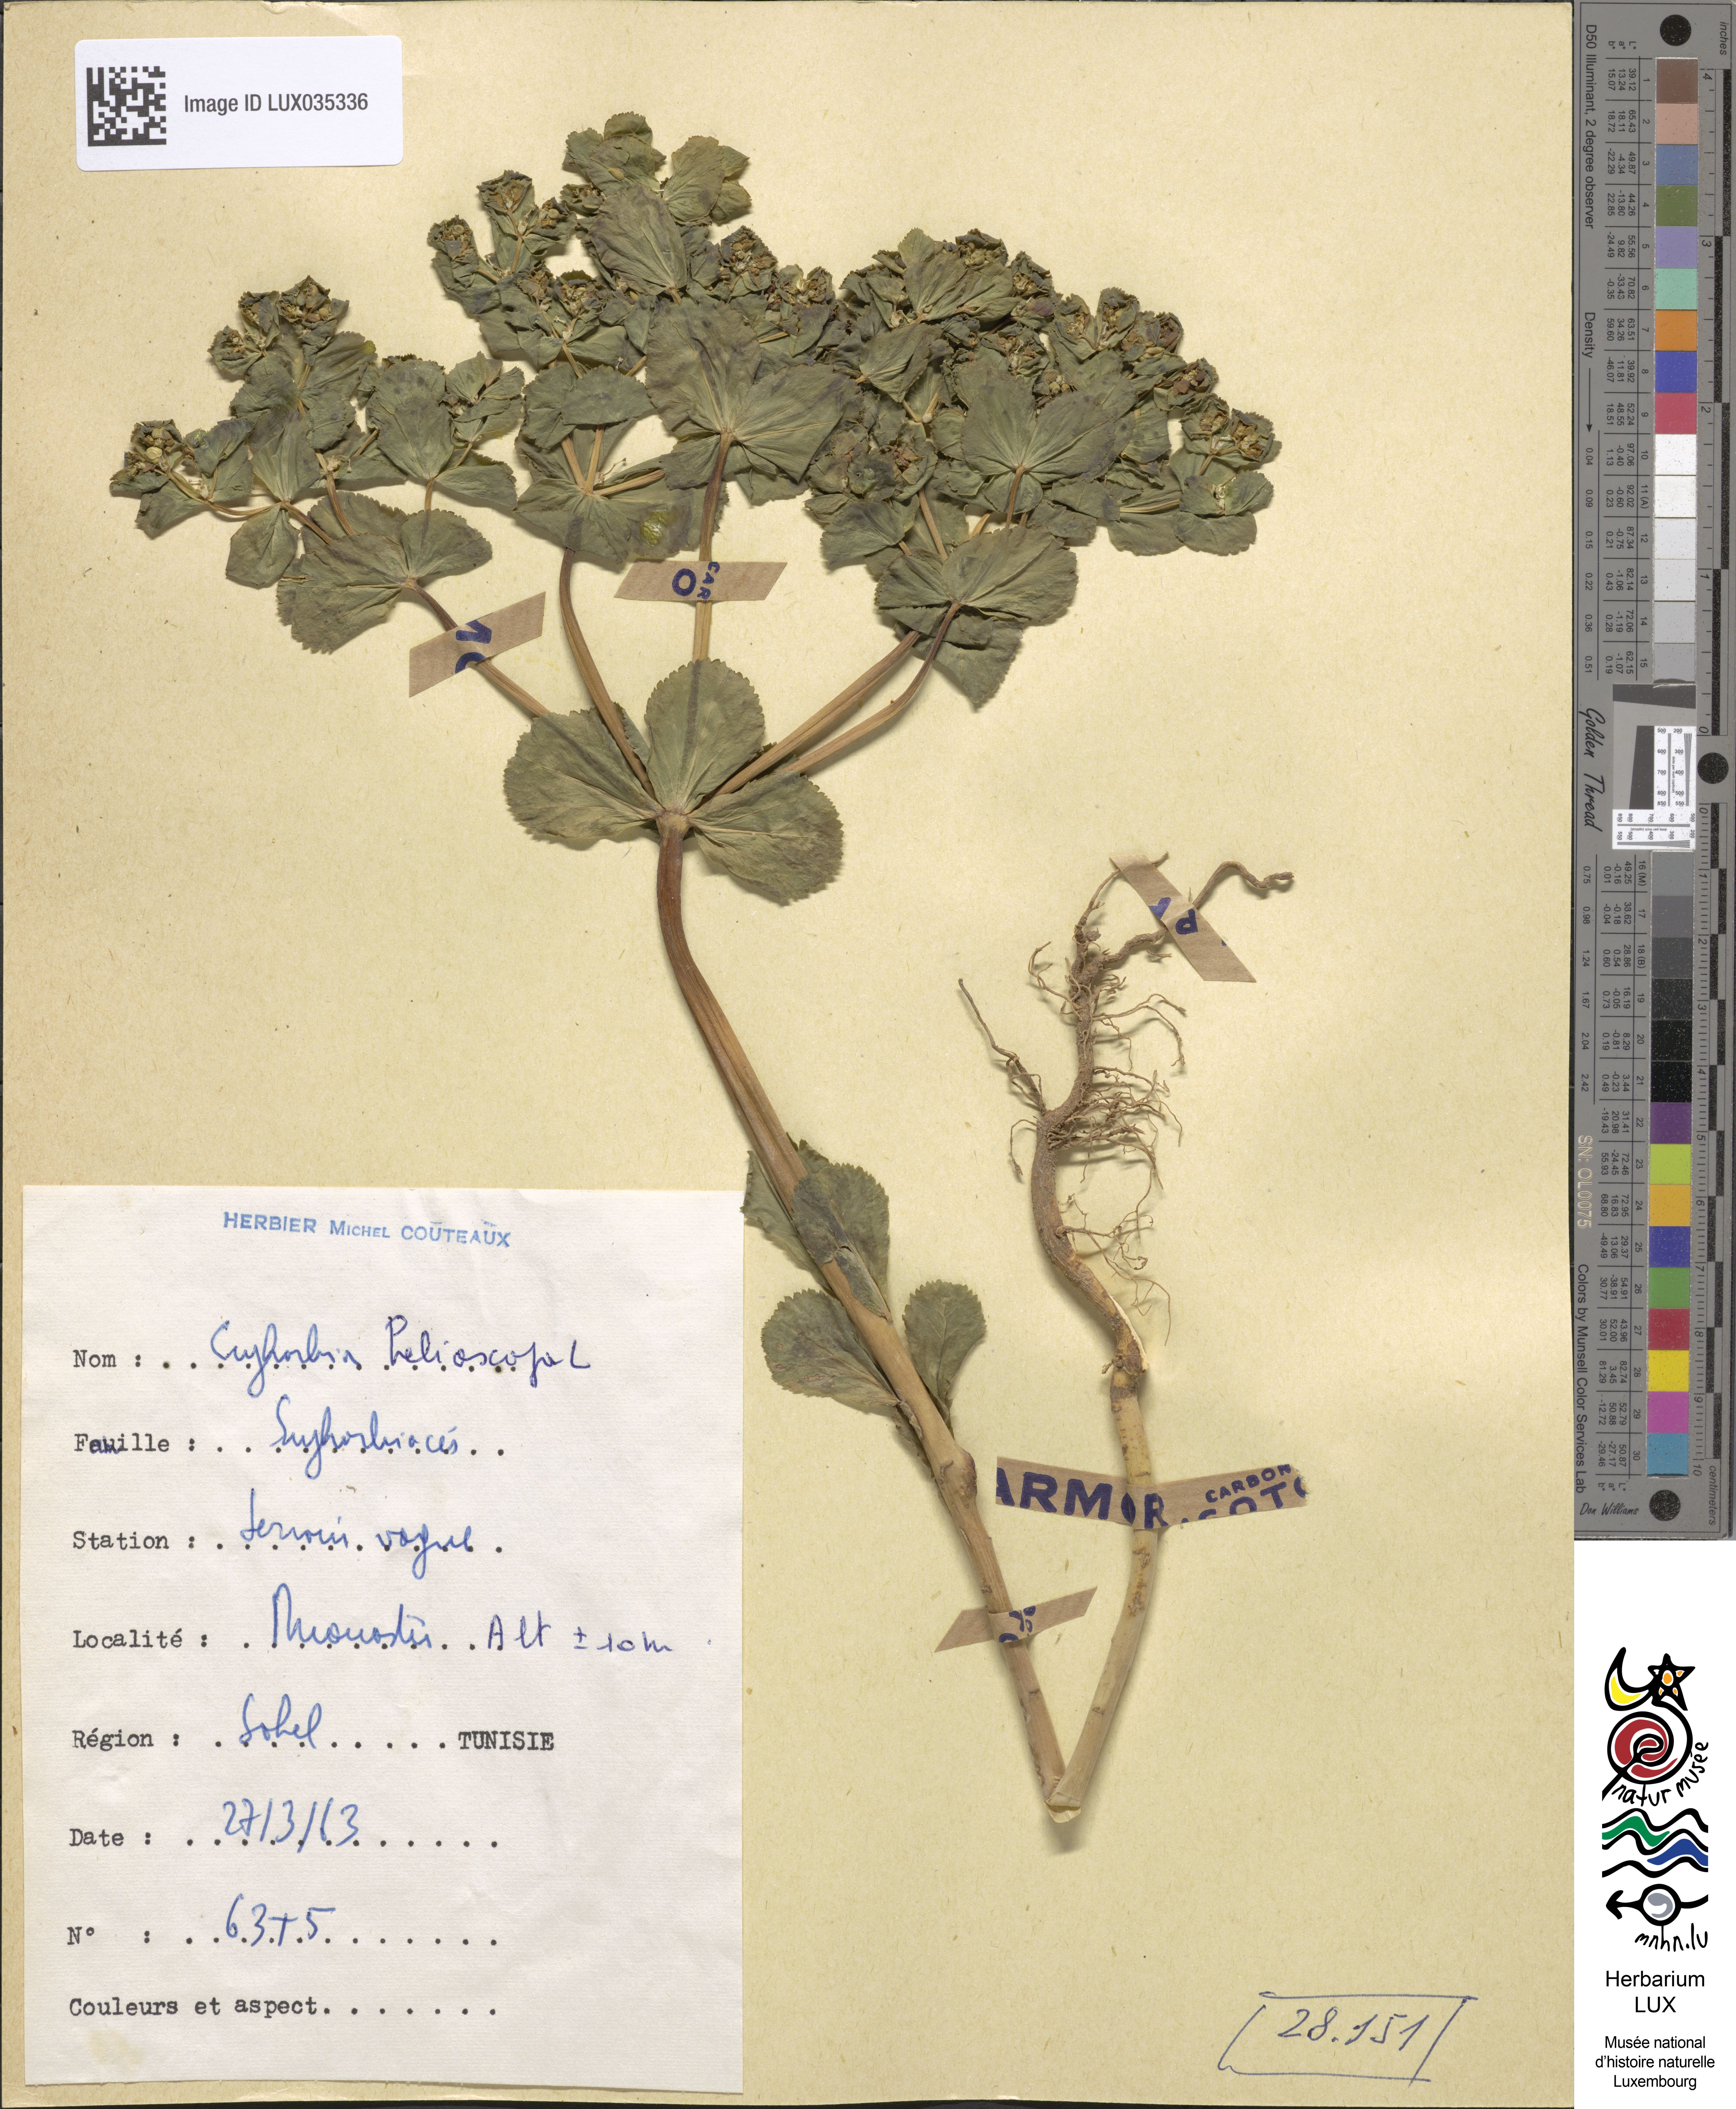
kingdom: Plantae
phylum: Tracheophyta
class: Magnoliopsida
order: Malpighiales
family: Euphorbiaceae
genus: Euphorbia
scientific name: Euphorbia helioscopia
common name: Sun spurge
